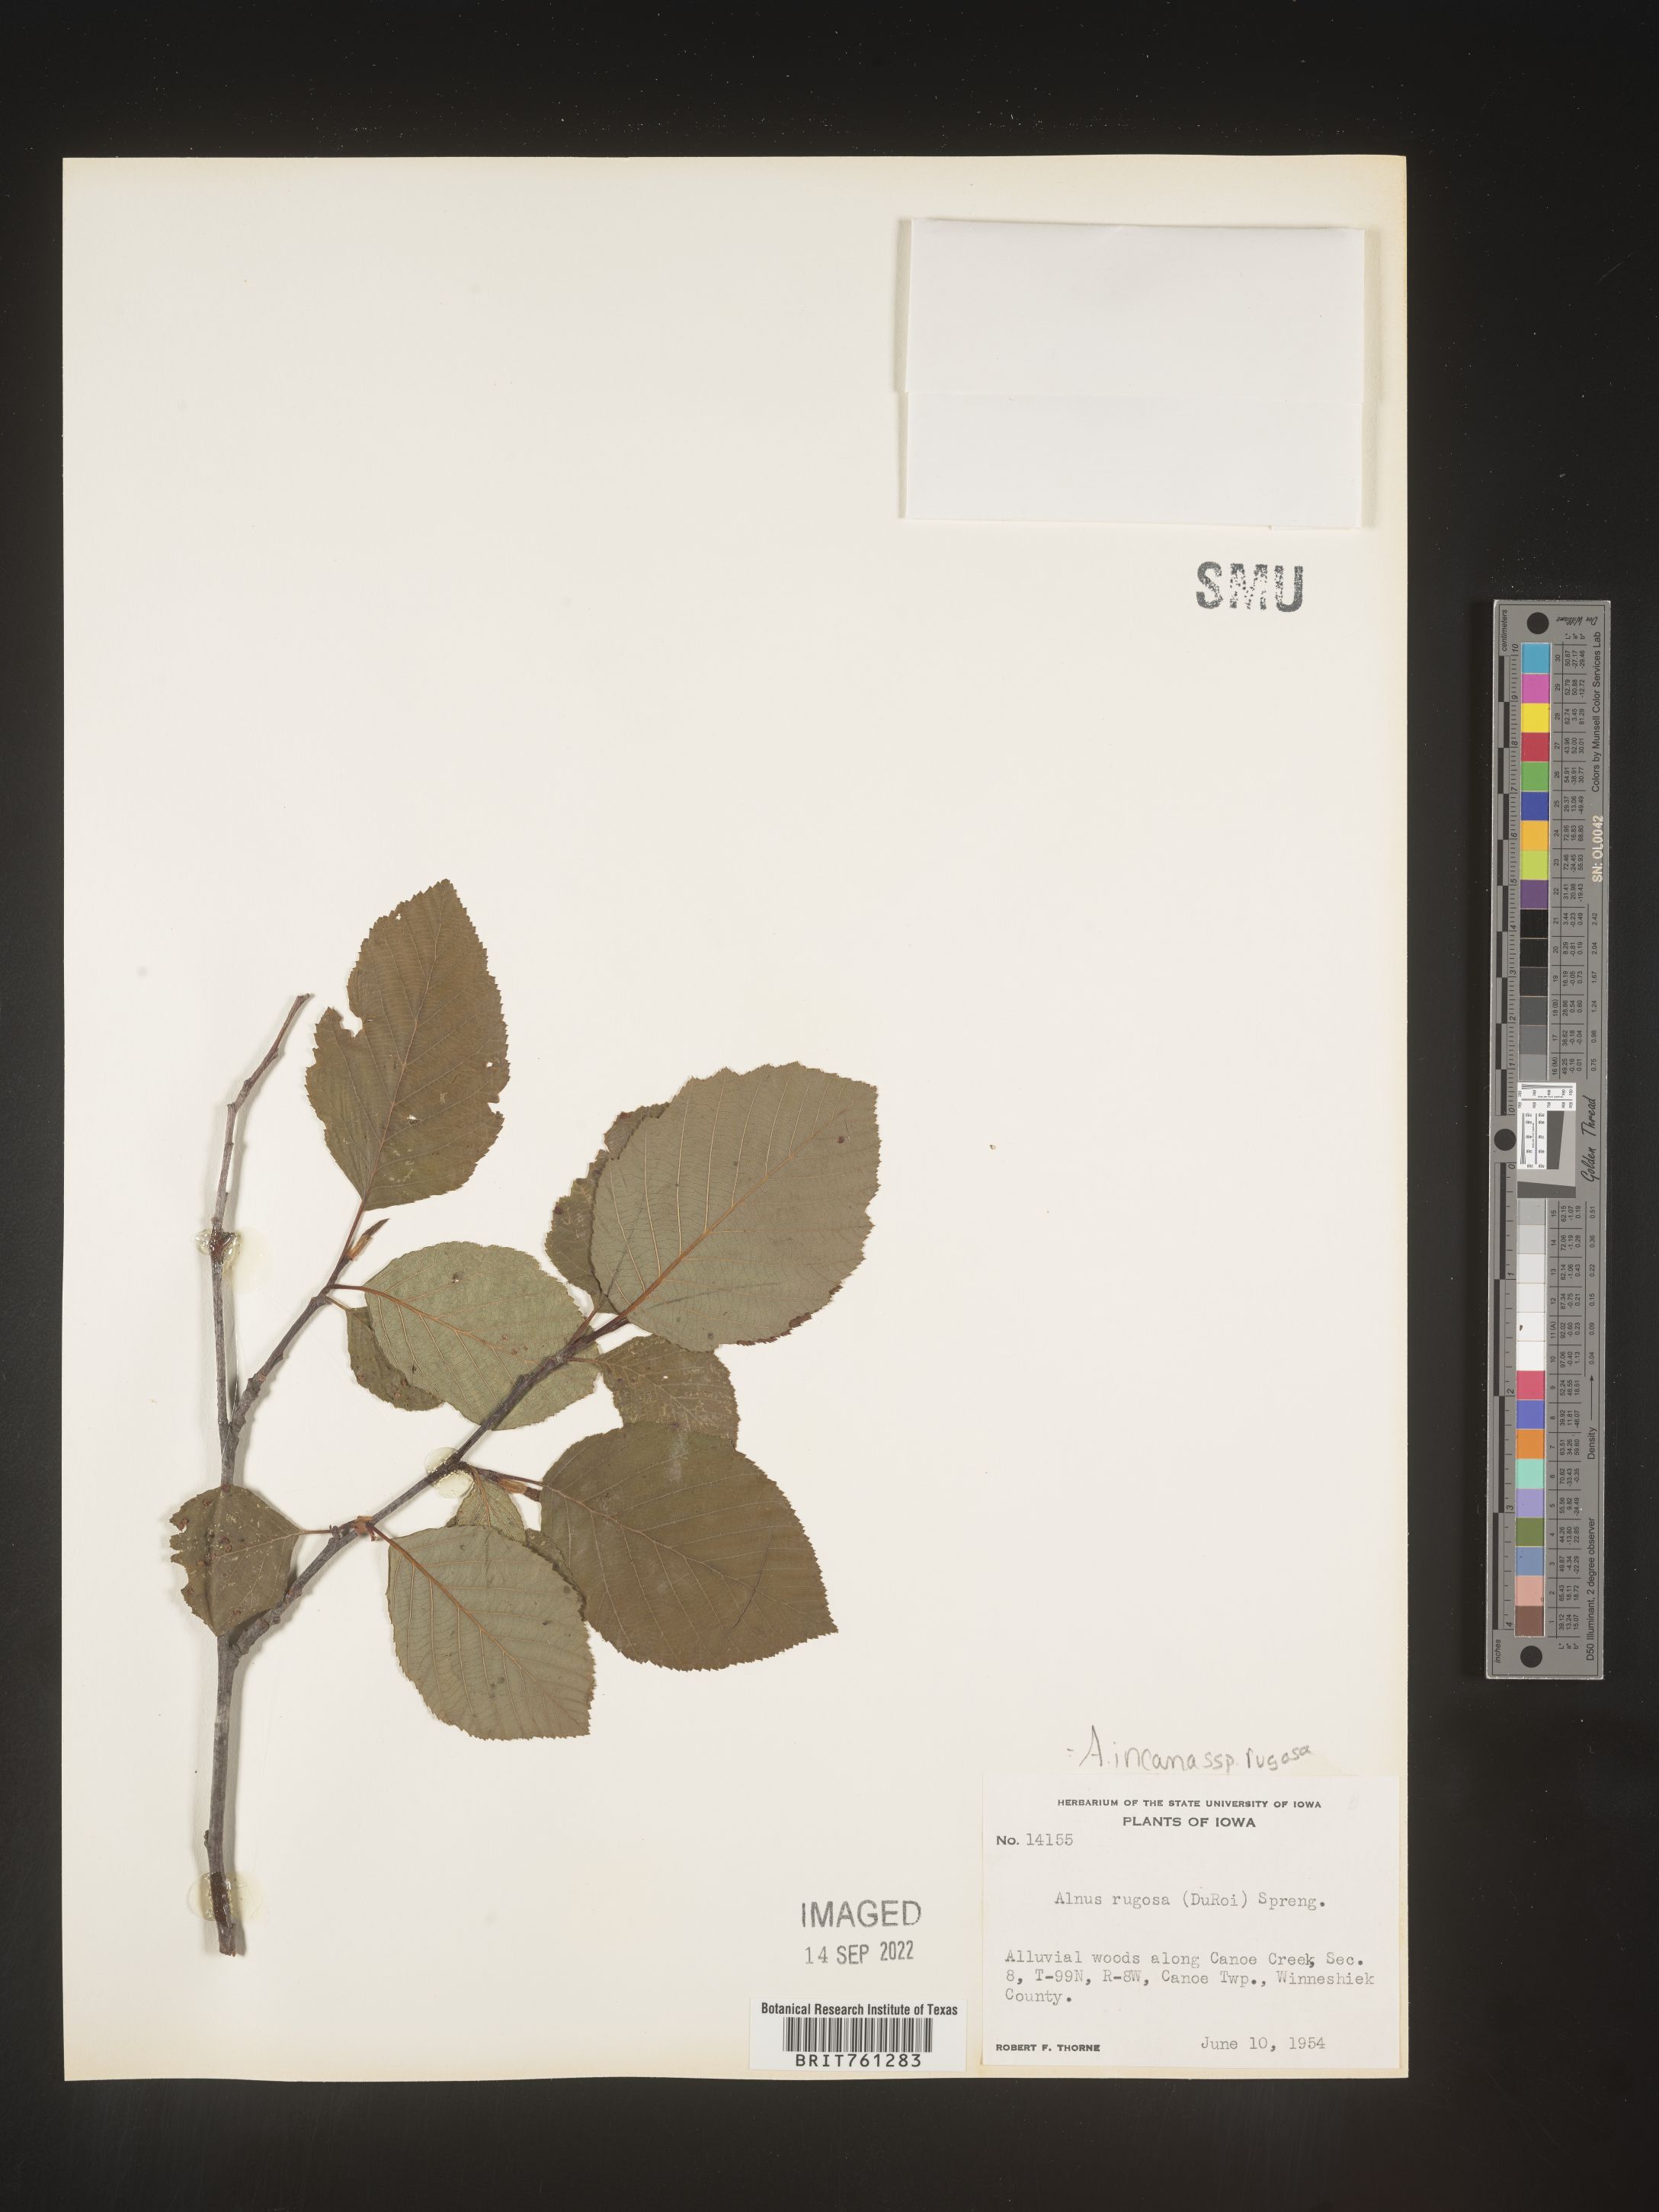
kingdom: Plantae
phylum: Tracheophyta
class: Magnoliopsida
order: Fagales
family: Betulaceae
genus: Alnus
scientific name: Alnus incana
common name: Grey alder
